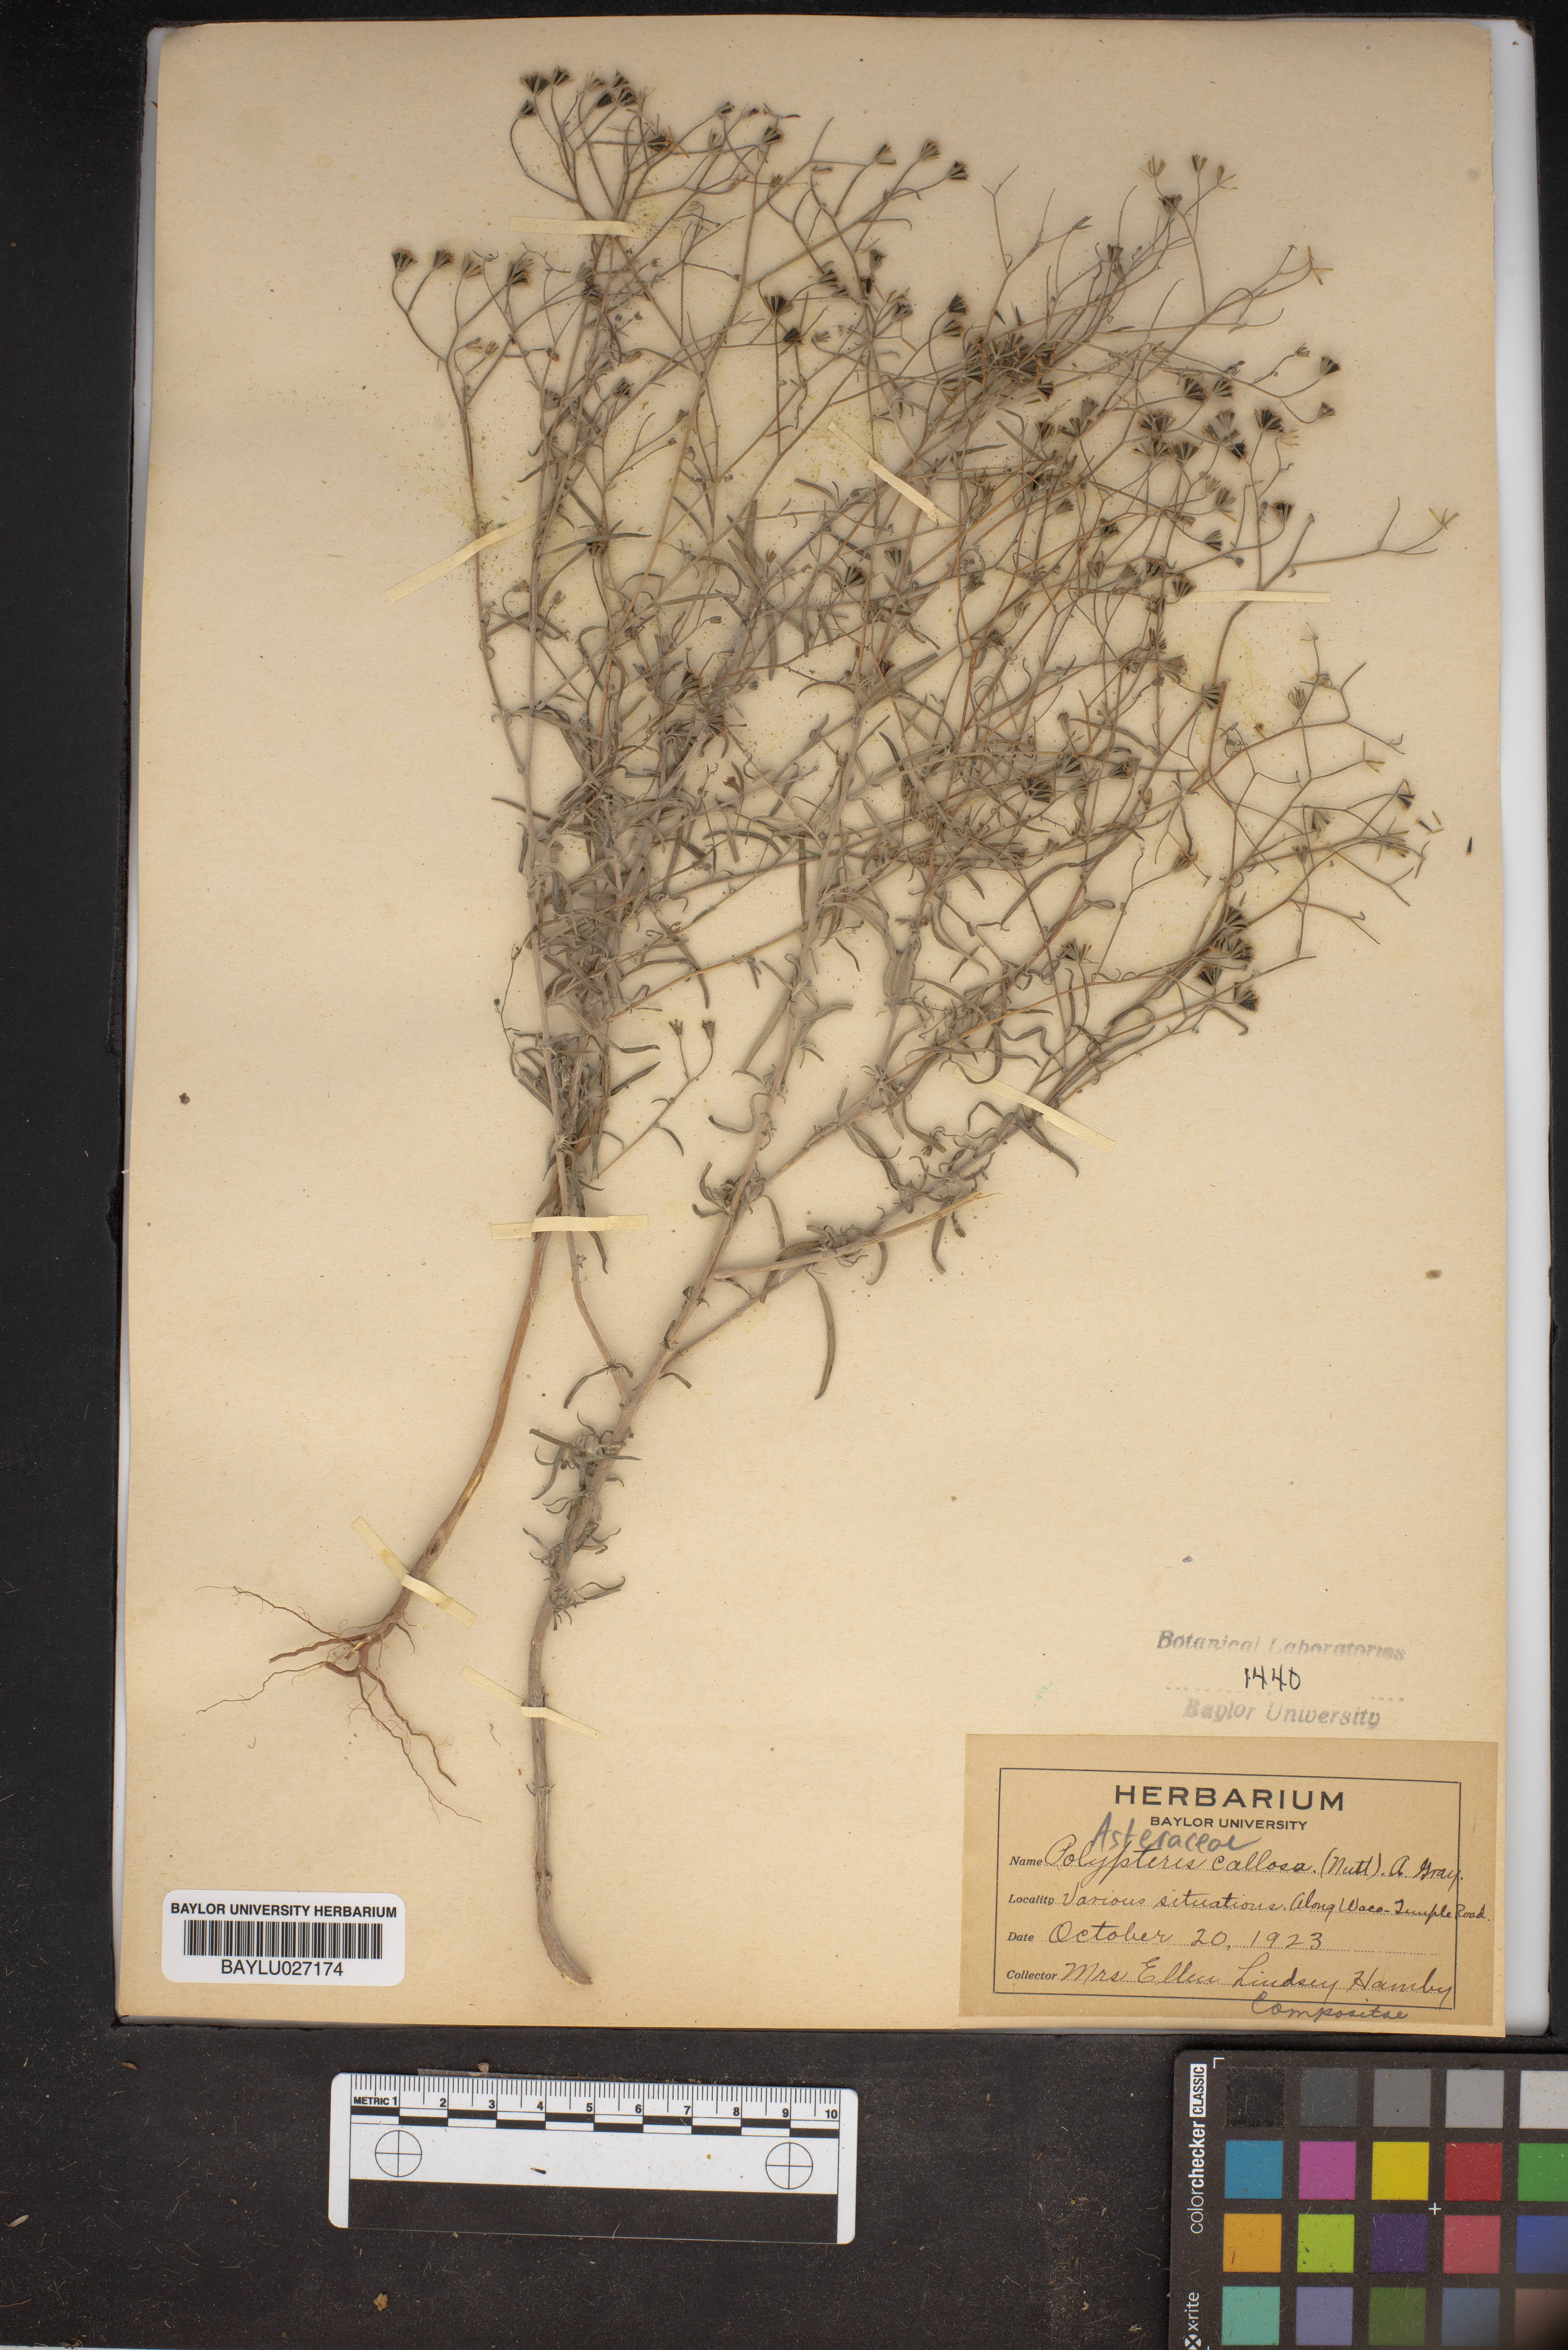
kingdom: Plantae
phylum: Tracheophyta
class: Magnoliopsida
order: Asterales
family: Asteraceae
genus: Palafoxia
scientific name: Palafoxia callosa
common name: Small palafox
